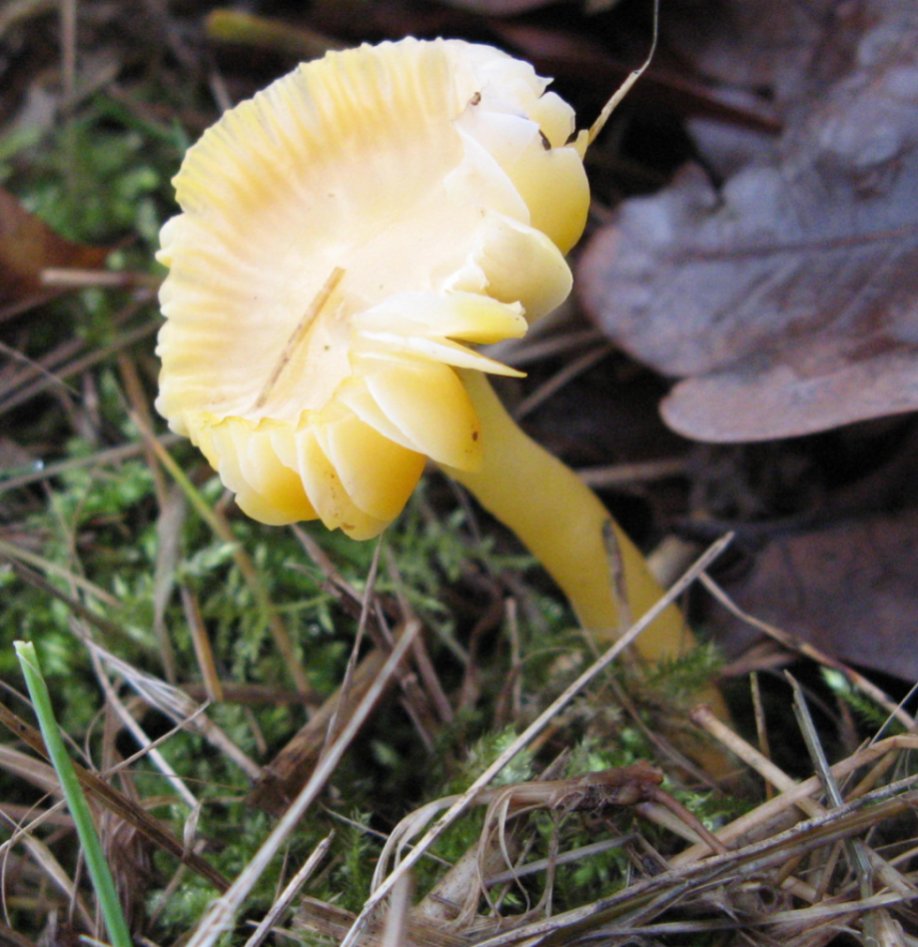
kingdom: Fungi
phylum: Basidiomycota
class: Agaricomycetes
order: Agaricales
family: Hygrophoraceae
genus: Gliophorus
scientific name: Gliophorus psittacinus
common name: papegøje-vokshat
